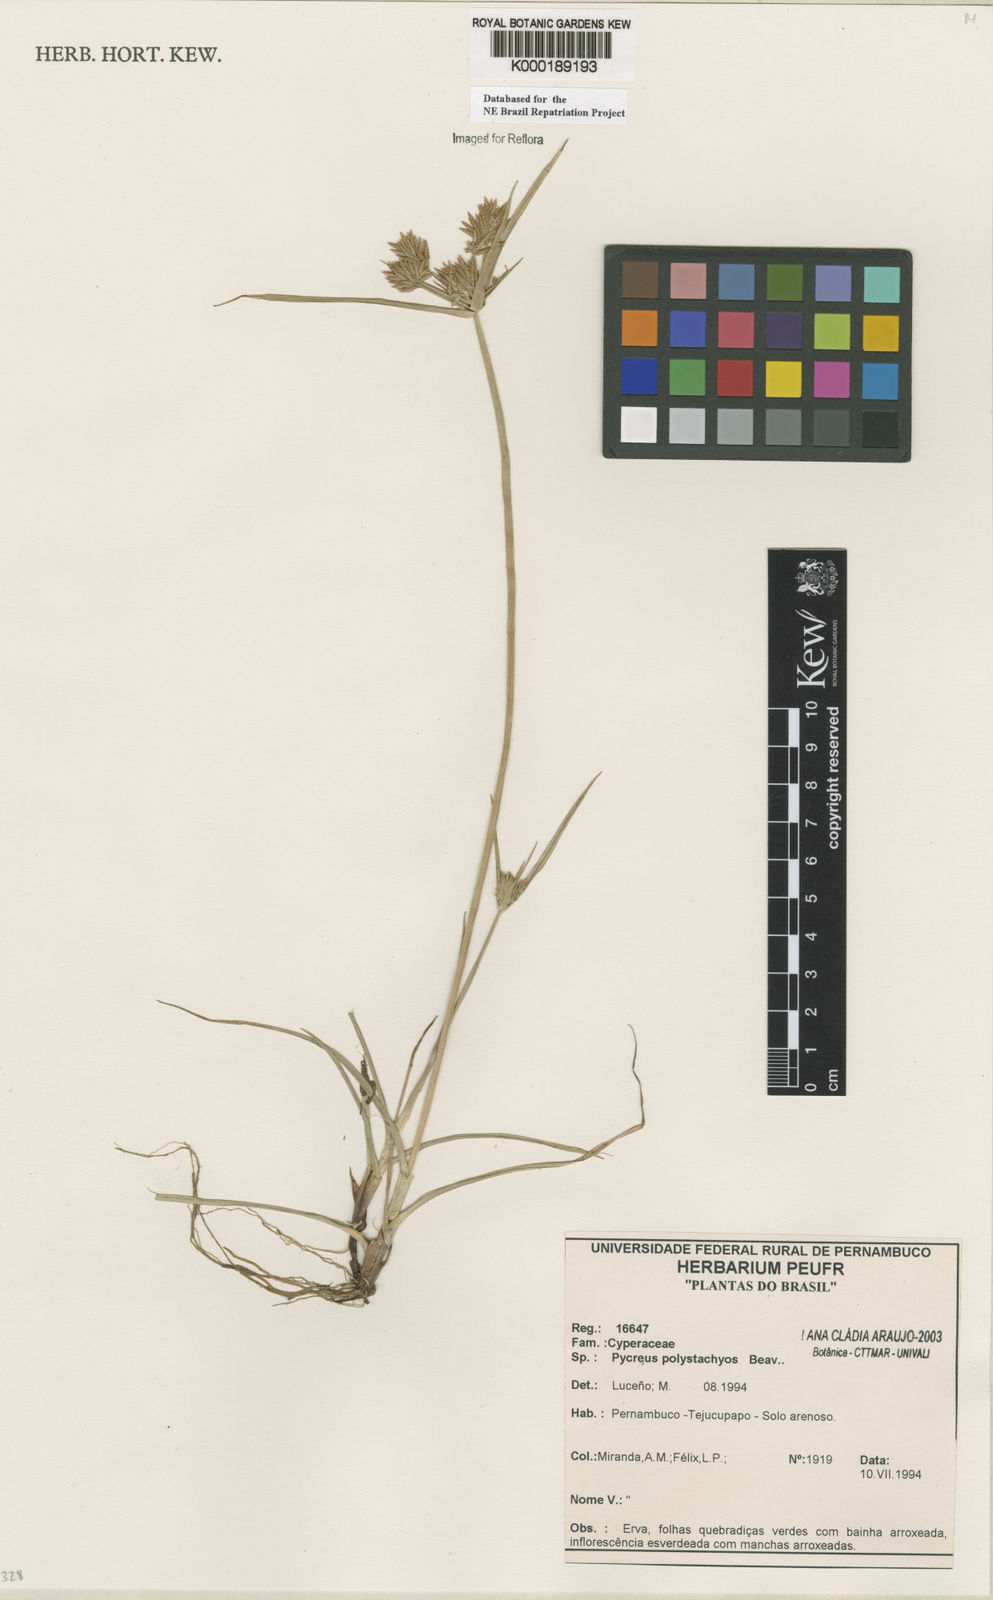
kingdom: Plantae
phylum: Tracheophyta
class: Liliopsida
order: Poales
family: Cyperaceae
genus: Cyperus
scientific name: Cyperus polystachyos
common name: Bunchy flat sedge
